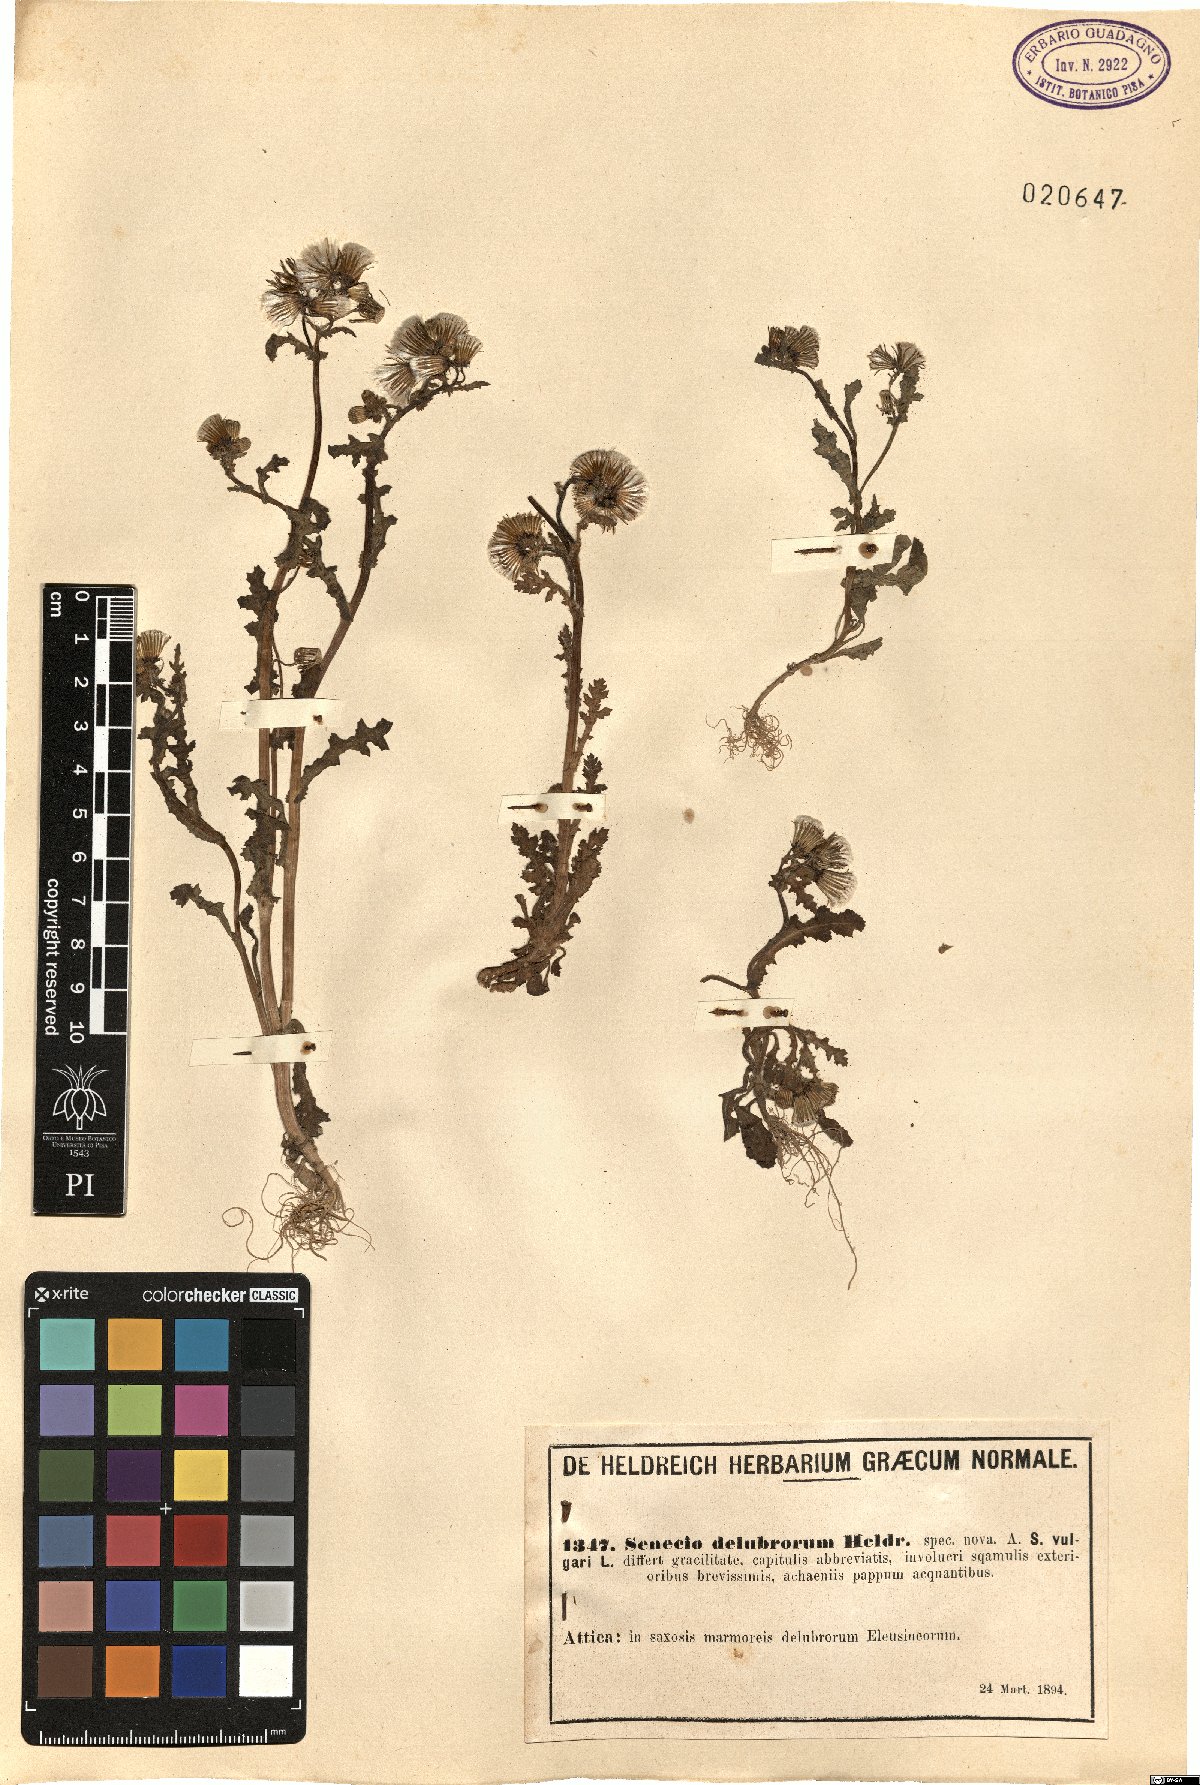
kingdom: Plantae
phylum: Tracheophyta
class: Magnoliopsida
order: Asterales
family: Asteraceae
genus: Senecio
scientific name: Senecio delubrorum
